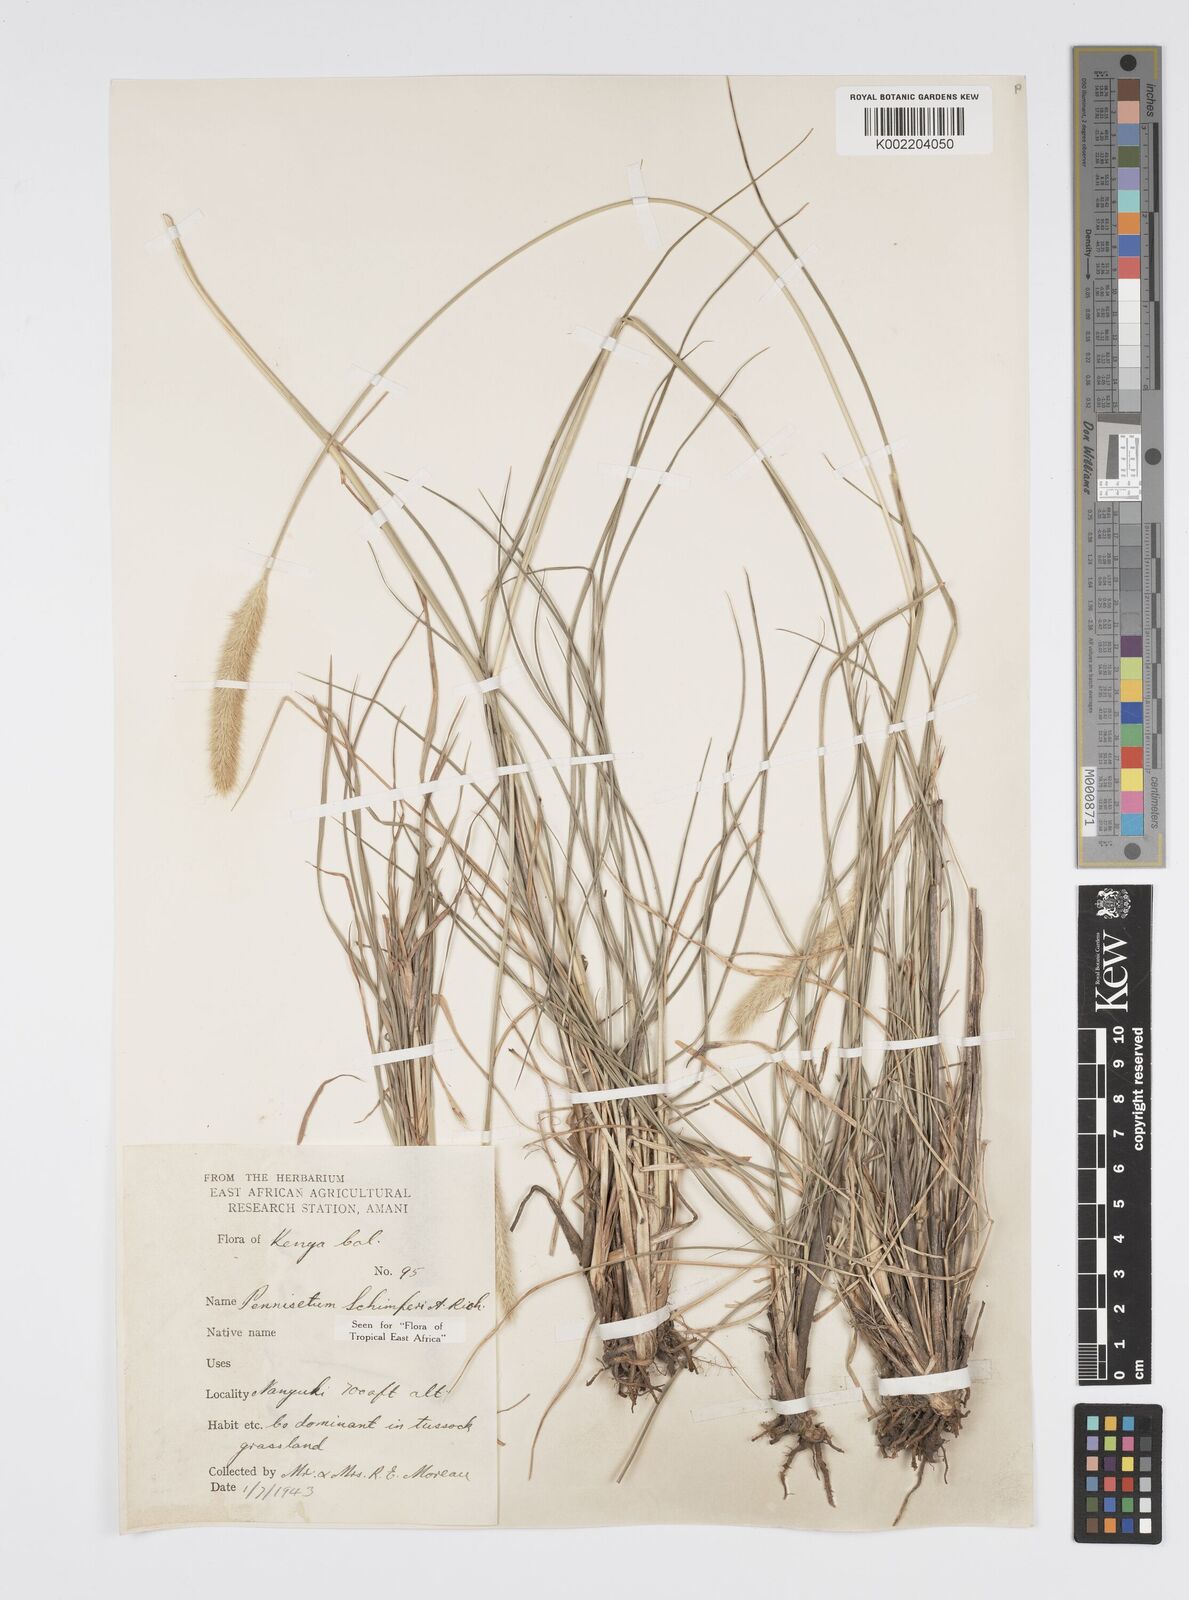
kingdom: Plantae
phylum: Tracheophyta
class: Liliopsida
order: Poales
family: Poaceae
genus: Cenchrus
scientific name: Cenchrus sphacelatus
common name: Bulgras
